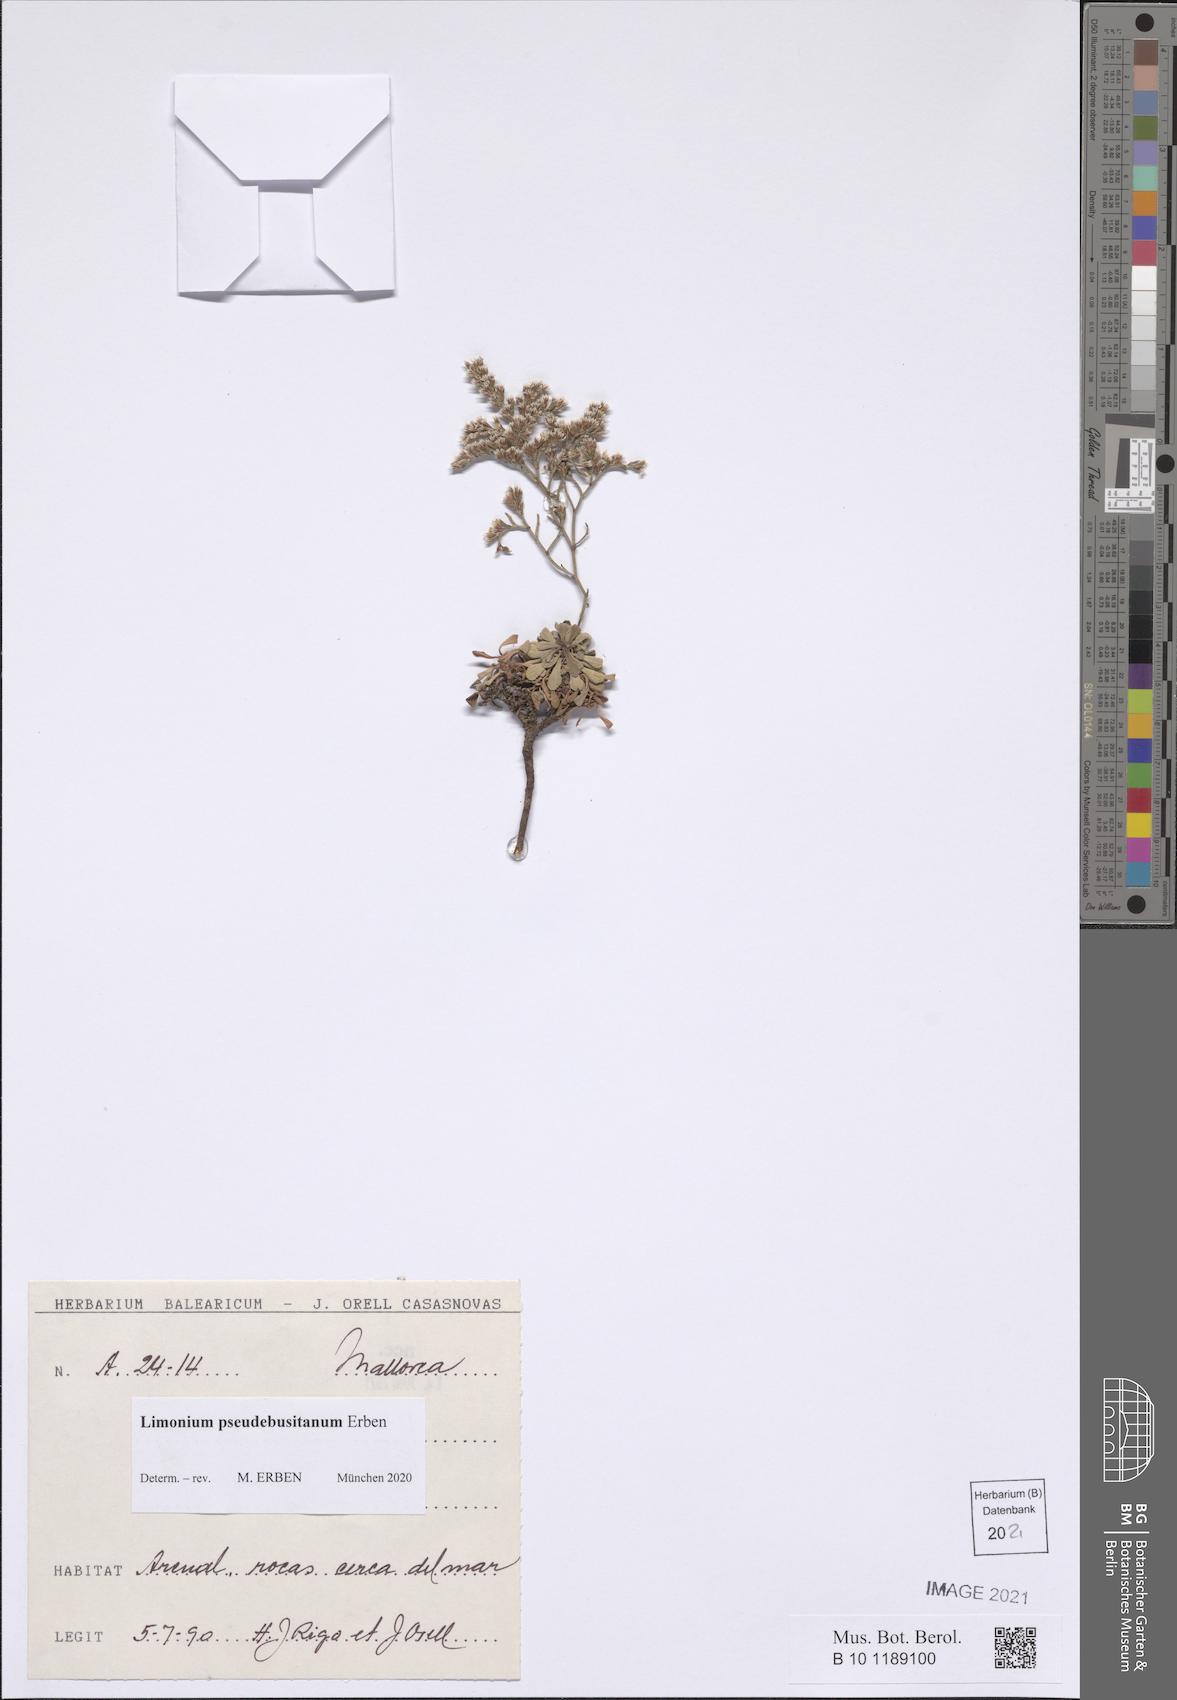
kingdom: Plantae
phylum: Tracheophyta
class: Magnoliopsida
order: Caryophyllales
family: Plumbaginaceae
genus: Limonium
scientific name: Limonium pseudebusitanum
